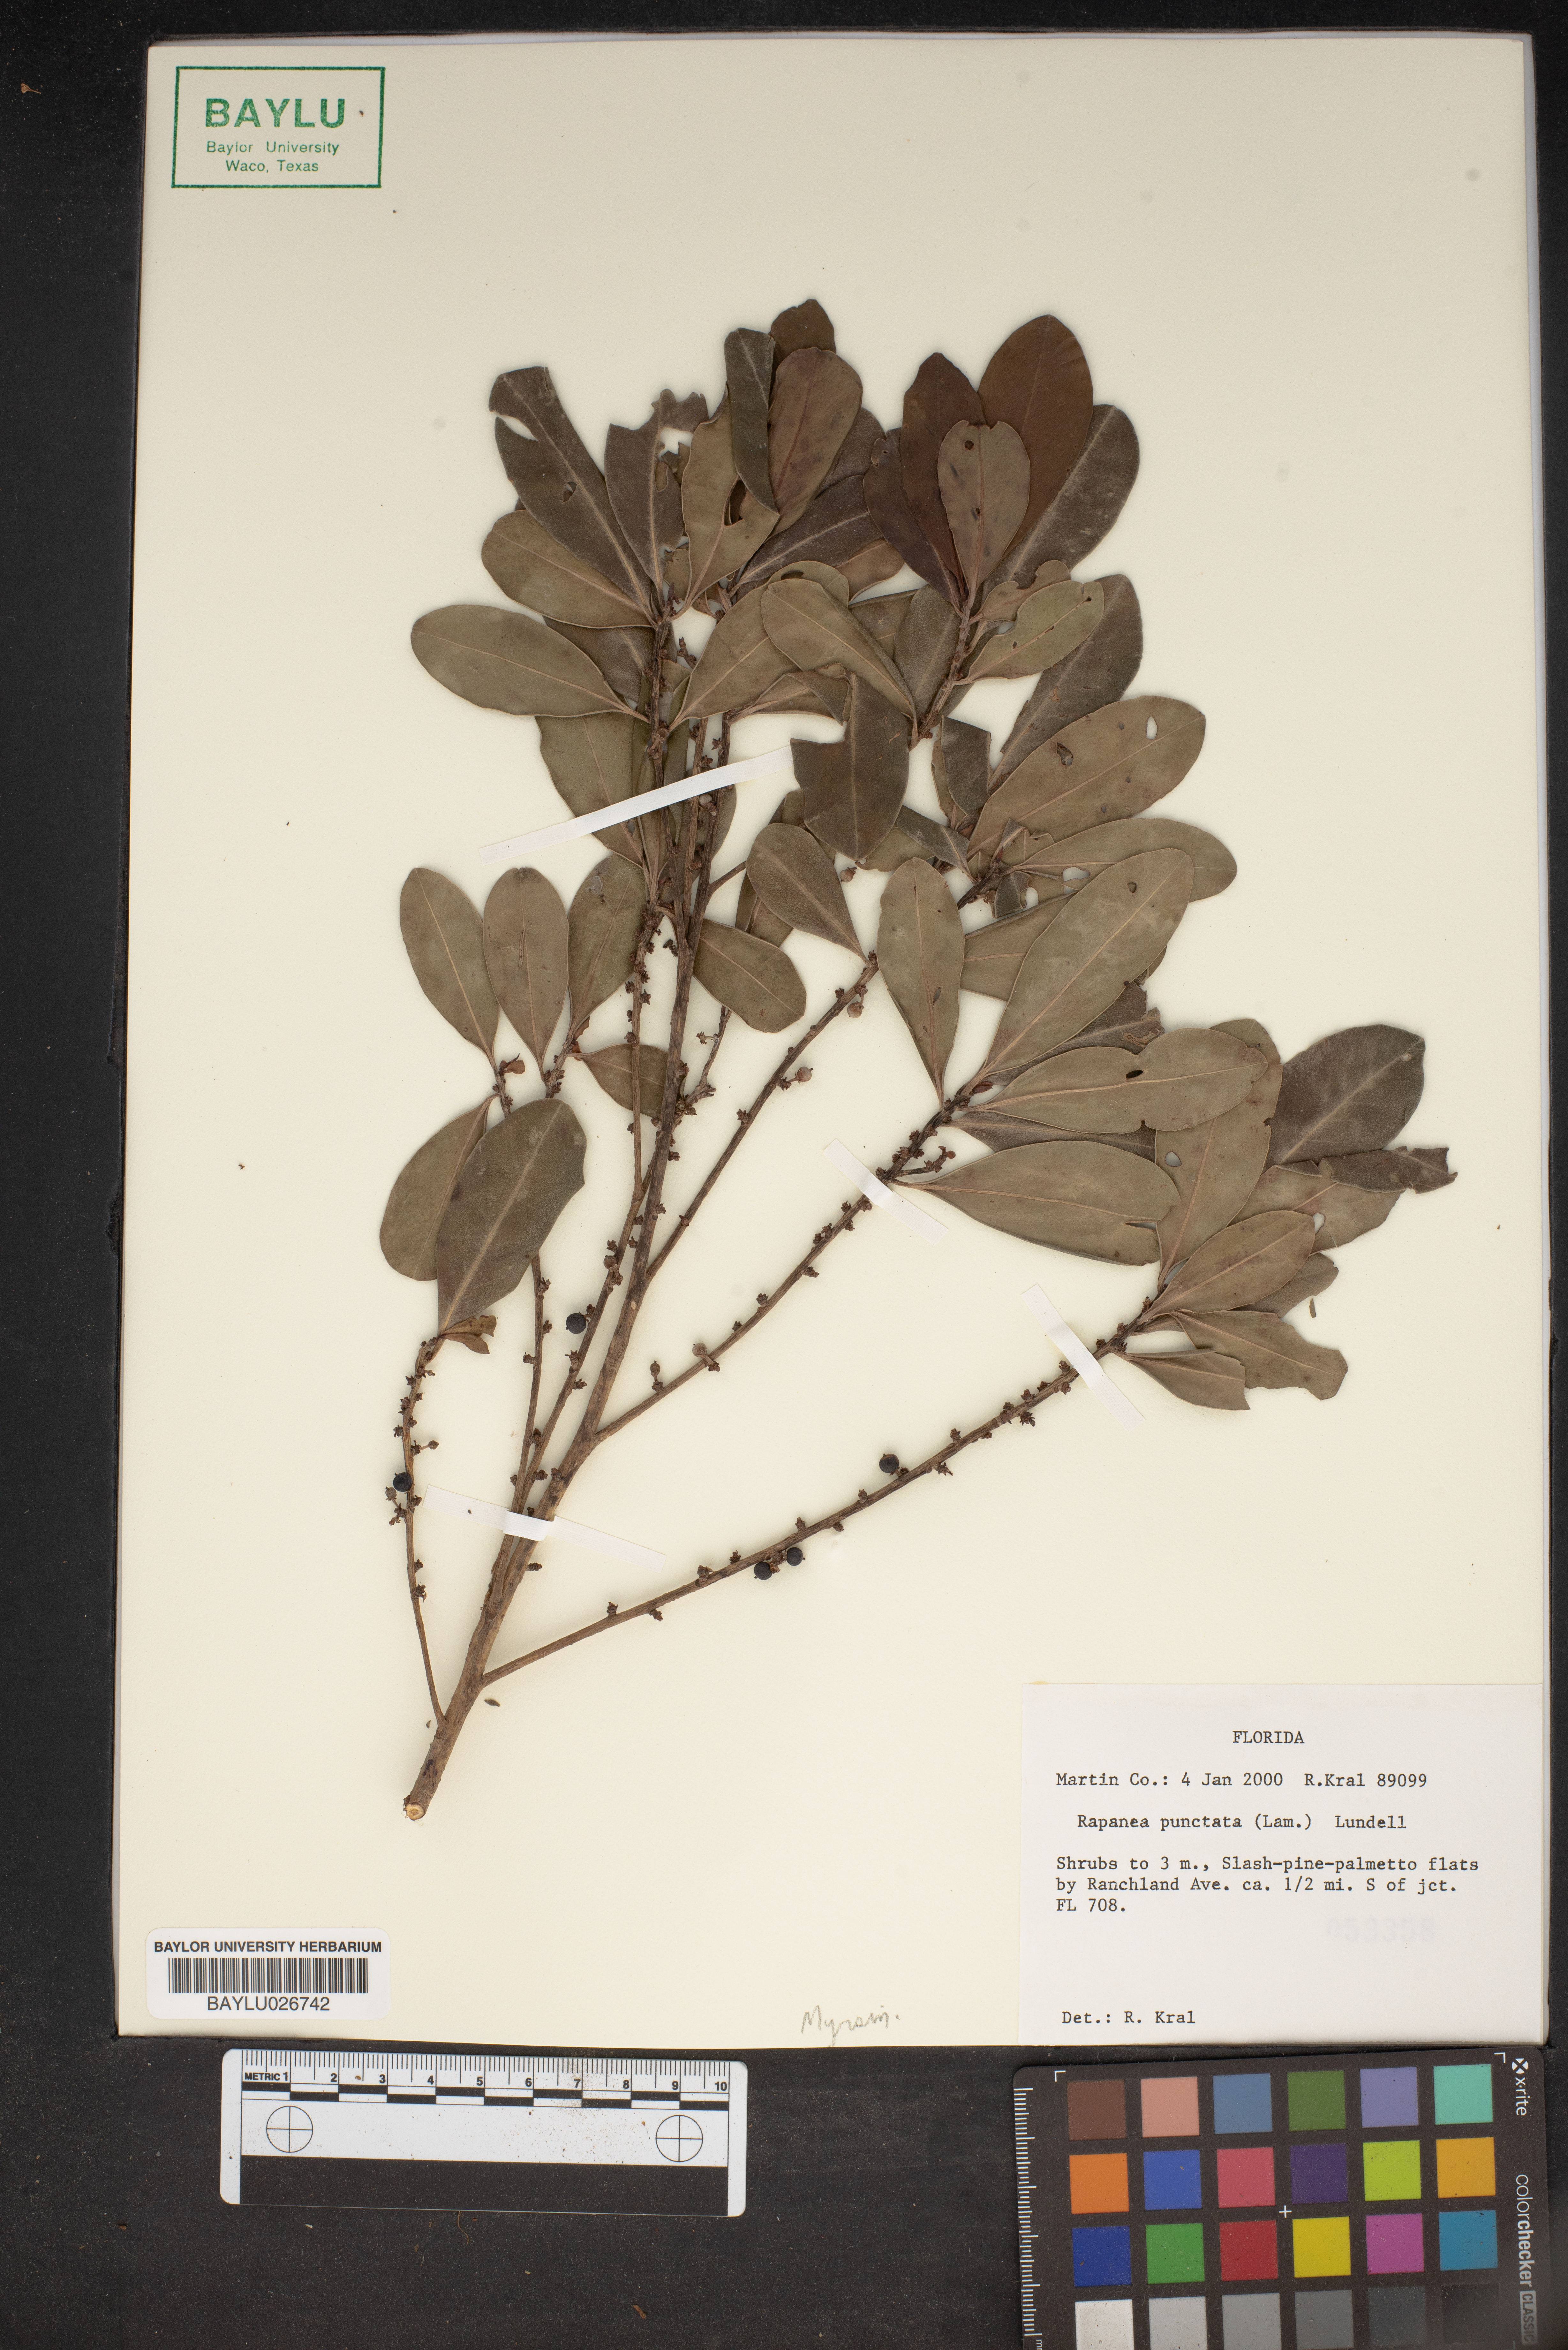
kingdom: Plantae
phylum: Tracheophyta
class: Magnoliopsida
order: Ericales
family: Primulaceae
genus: Myrsine
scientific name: Myrsine floridana
